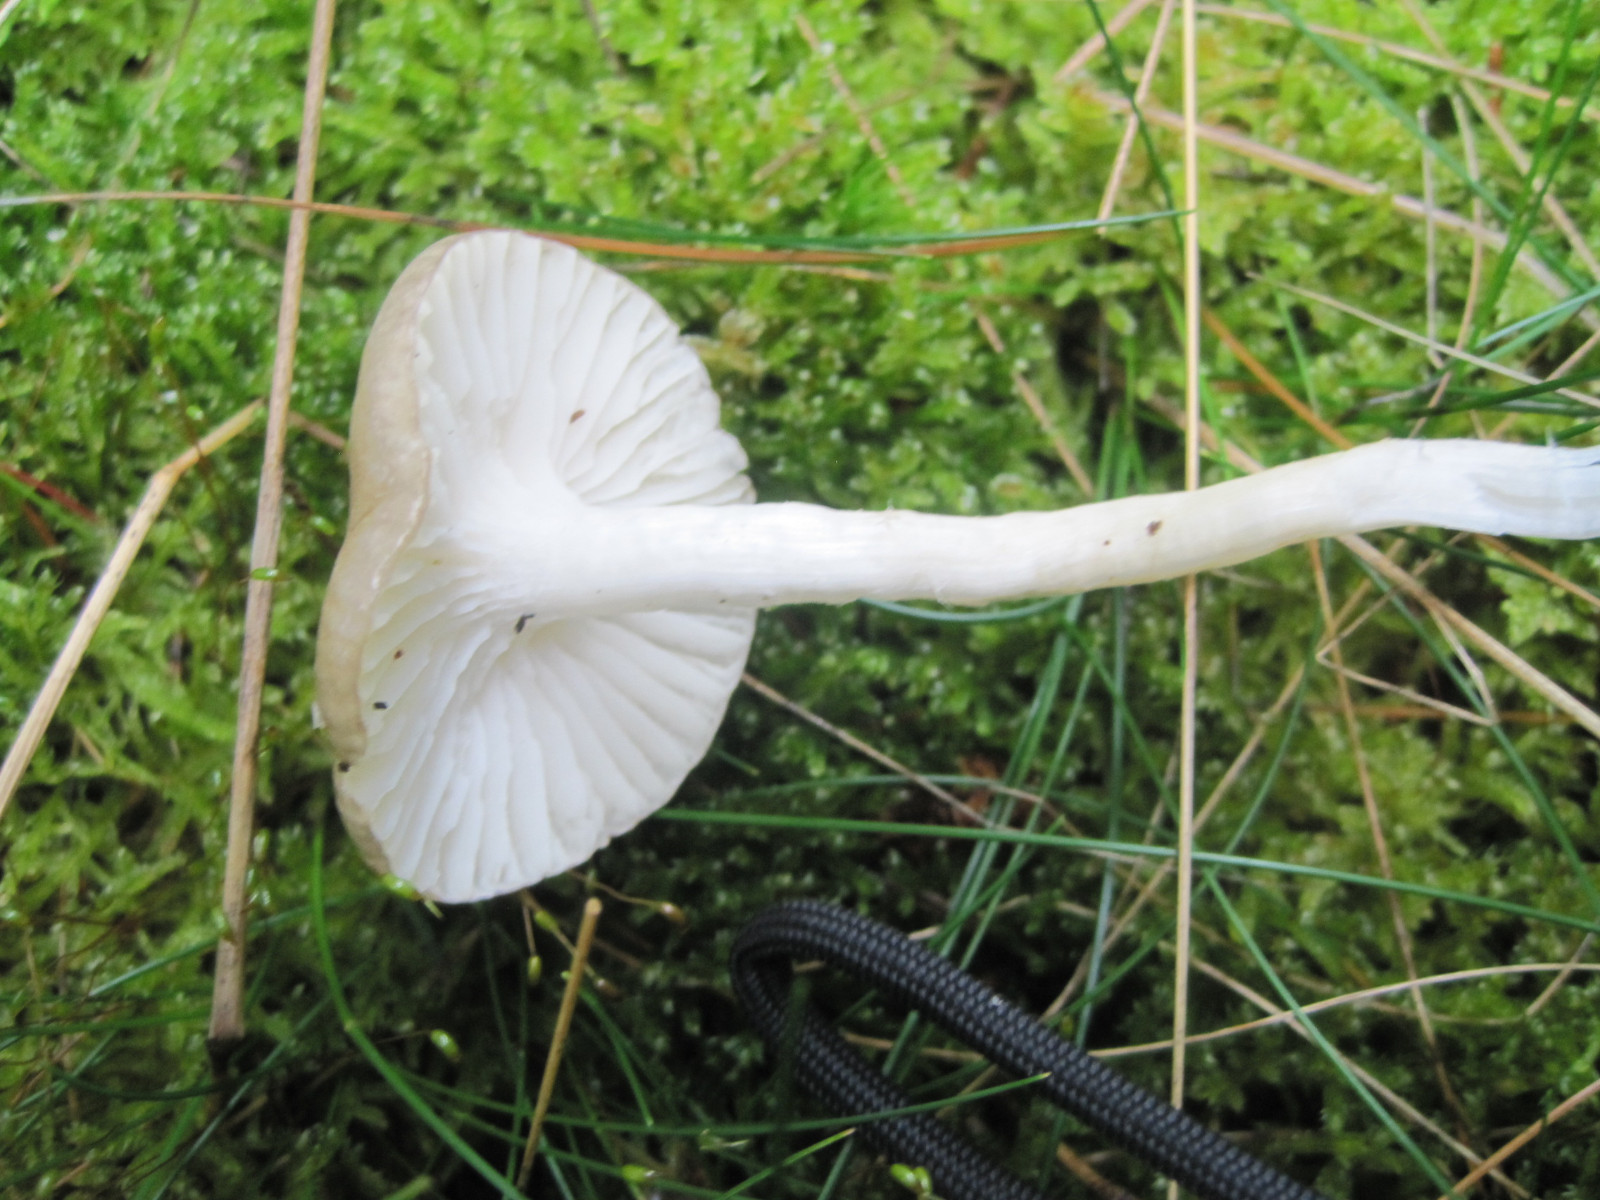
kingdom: Fungi
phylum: Basidiomycota
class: Agaricomycetes
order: Agaricales
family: Hygrophoraceae
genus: Hygrophorus
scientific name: Hygrophorus olivaceoalbus
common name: hvidbrun sneglehat
